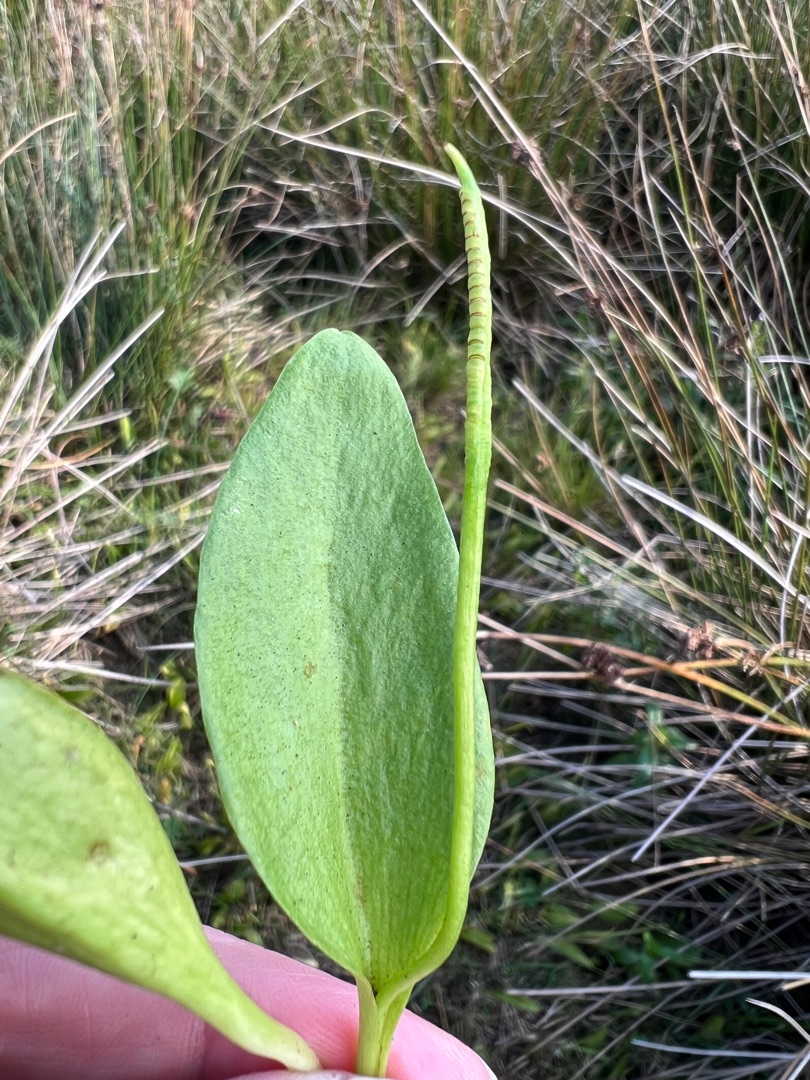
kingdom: Plantae
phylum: Tracheophyta
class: Polypodiopsida
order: Ophioglossales
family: Ophioglossaceae
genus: Ophioglossum
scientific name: Ophioglossum vulgatum
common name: Slangetunge
